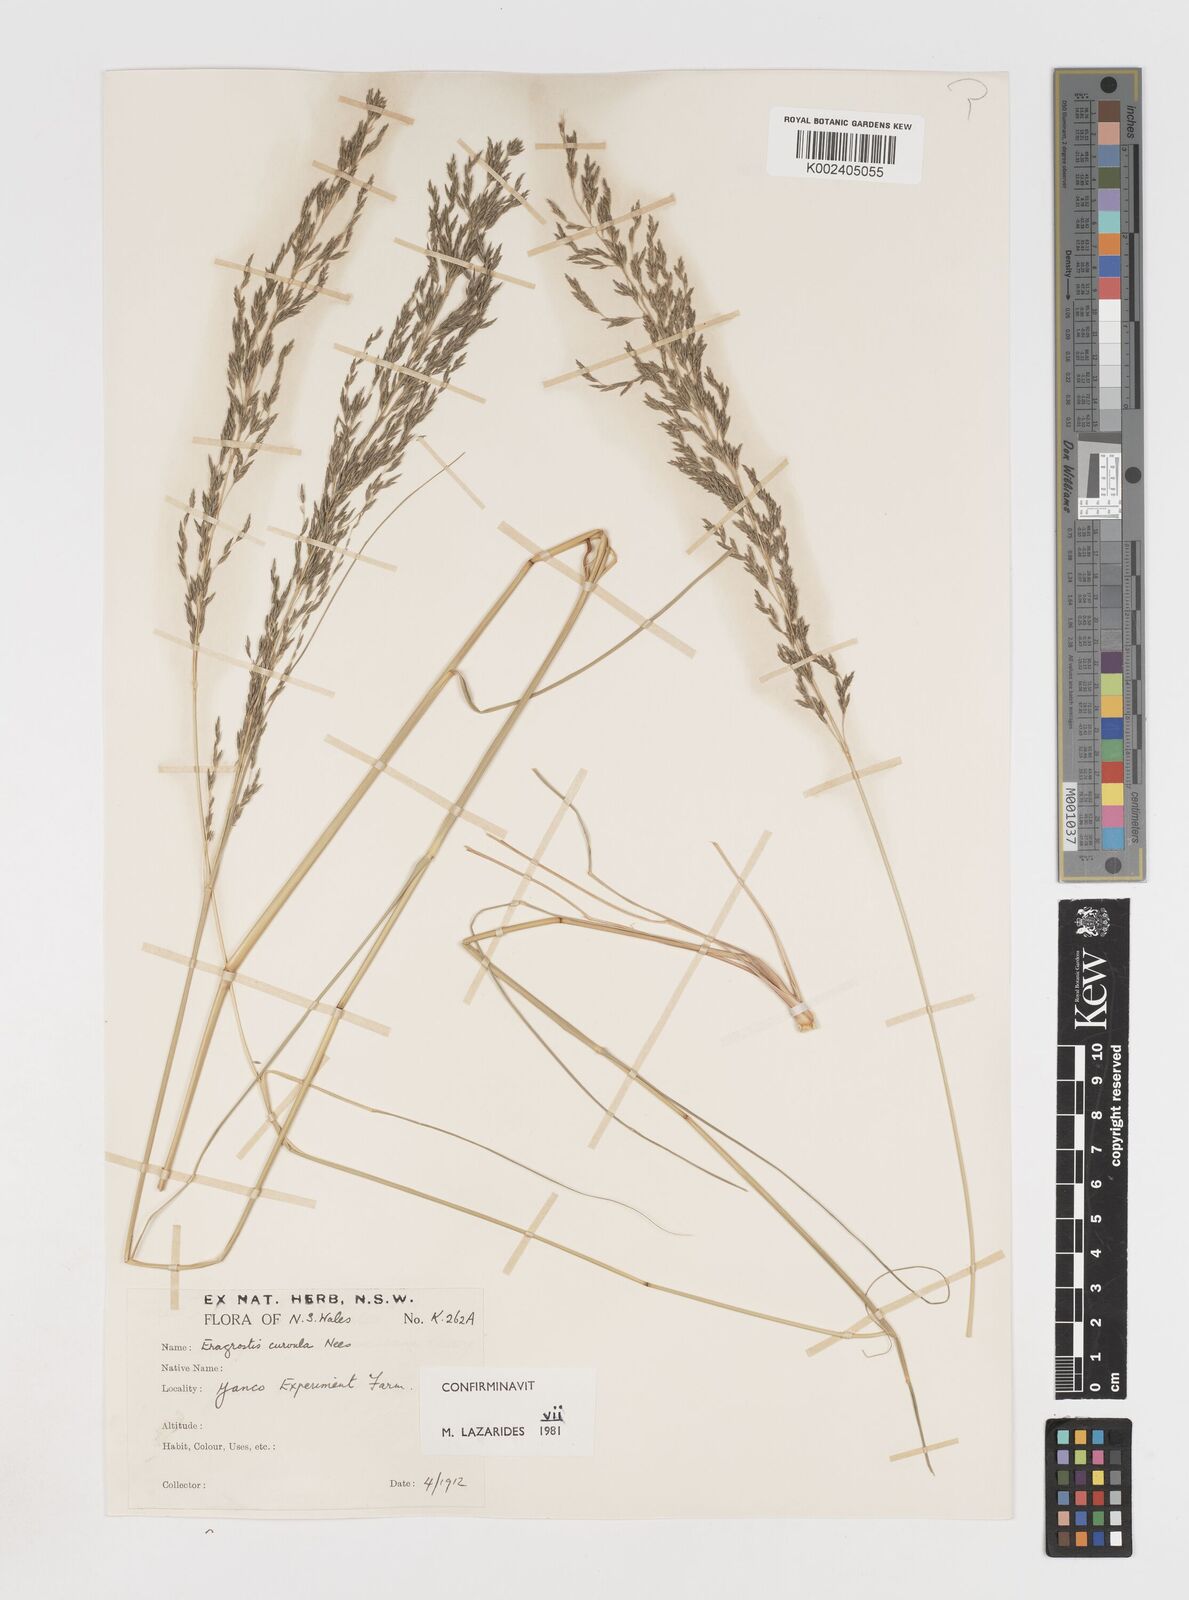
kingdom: Plantae
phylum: Tracheophyta
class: Liliopsida
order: Poales
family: Poaceae
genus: Eragrostis
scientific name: Eragrostis curvula
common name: African love-grass
